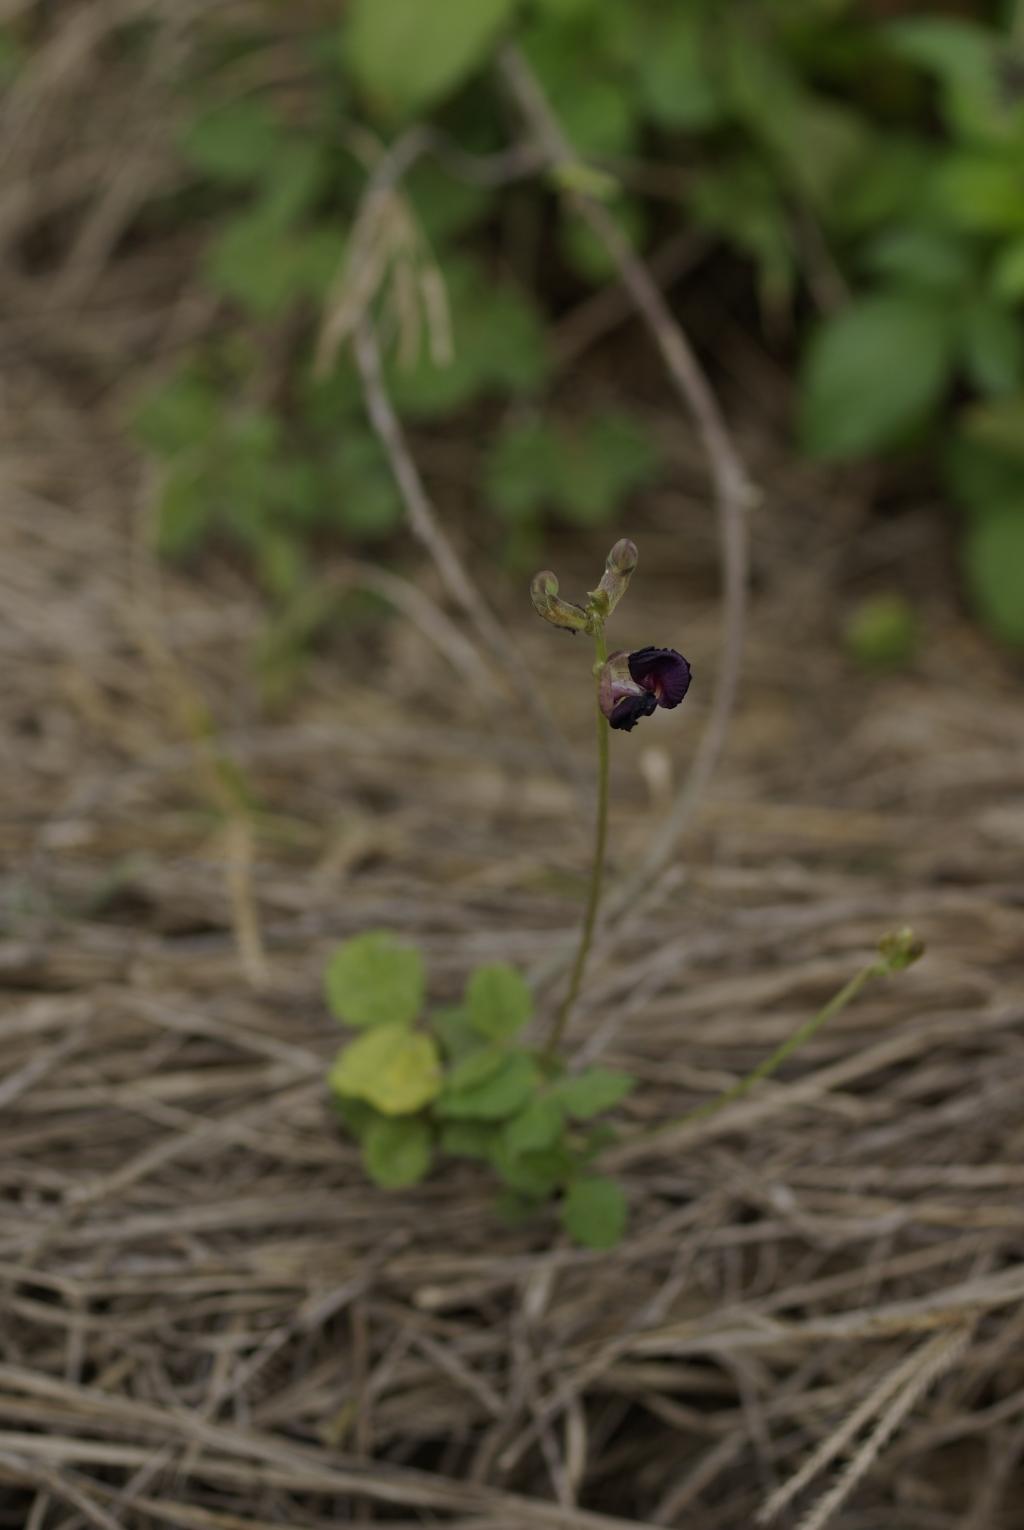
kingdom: Plantae
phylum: Tracheophyta
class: Magnoliopsida
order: Fabales
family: Fabaceae
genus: Macroptilium
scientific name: Macroptilium atropurpureum
